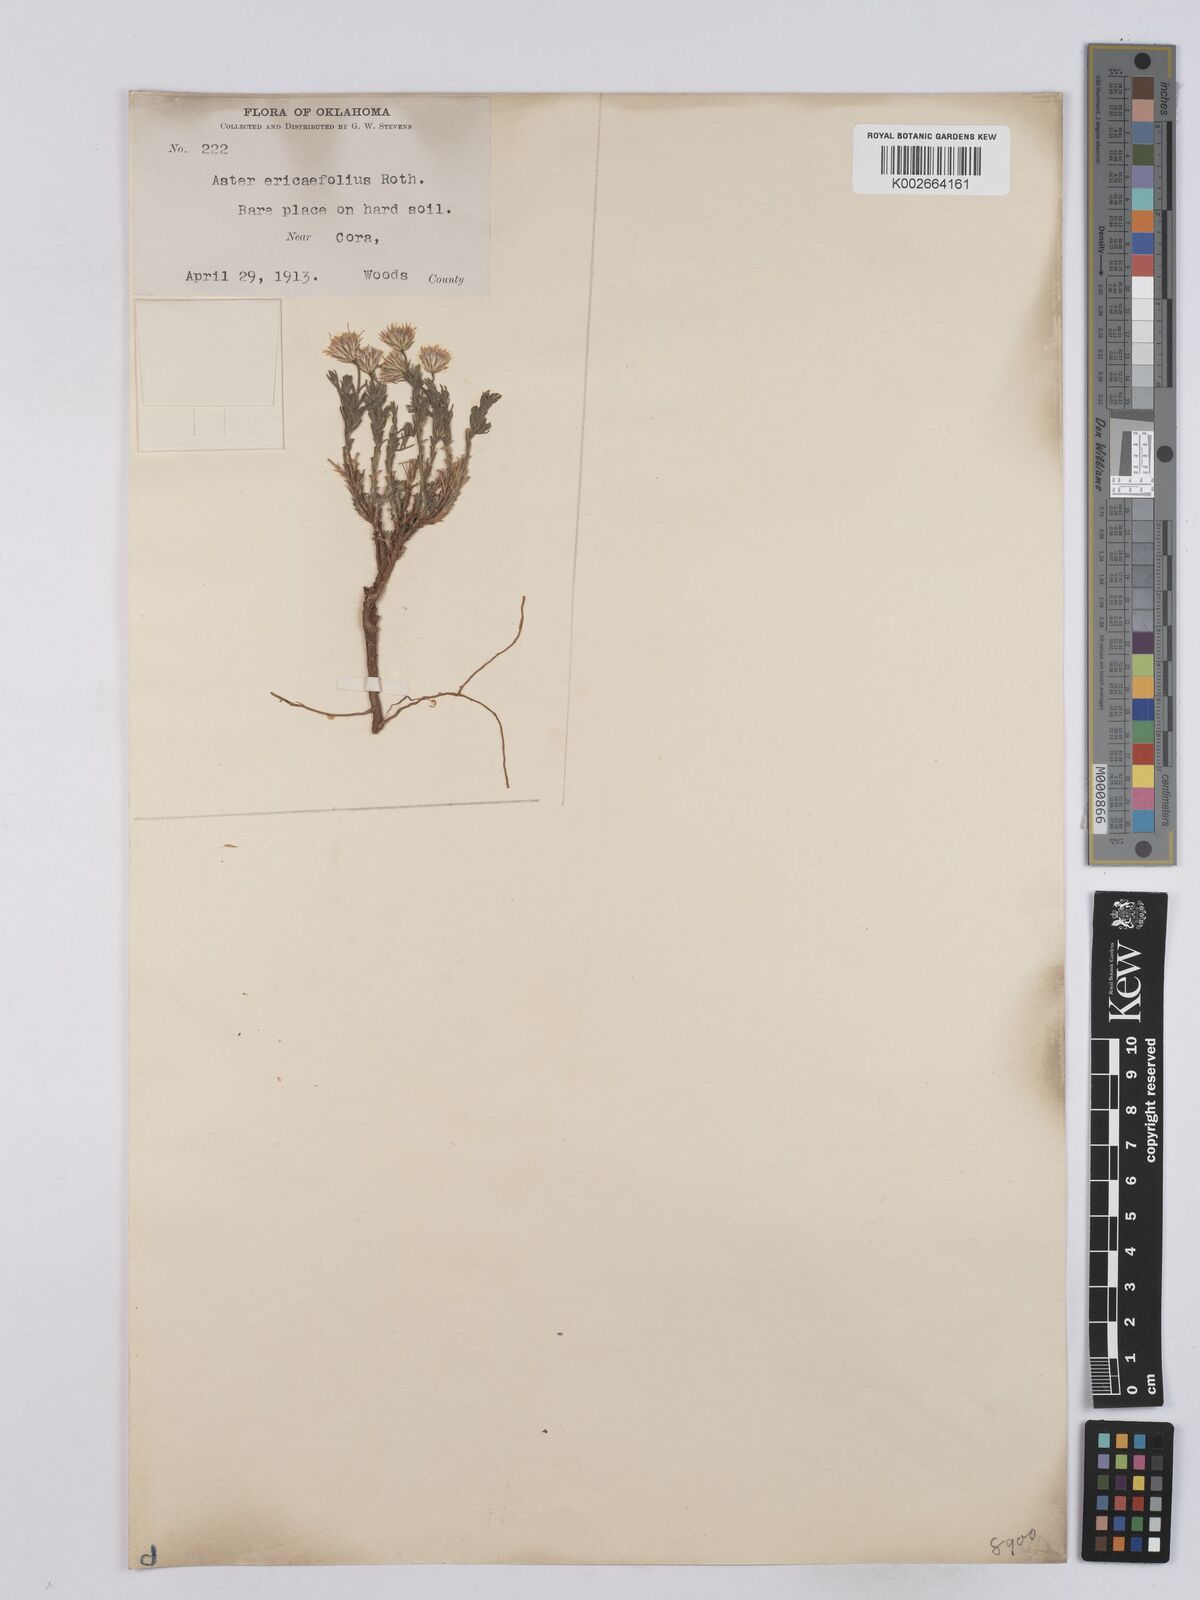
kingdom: Plantae
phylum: Tracheophyta
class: Magnoliopsida
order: Asterales
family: Asteraceae
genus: Chaetopappa
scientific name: Chaetopappa ericoides
